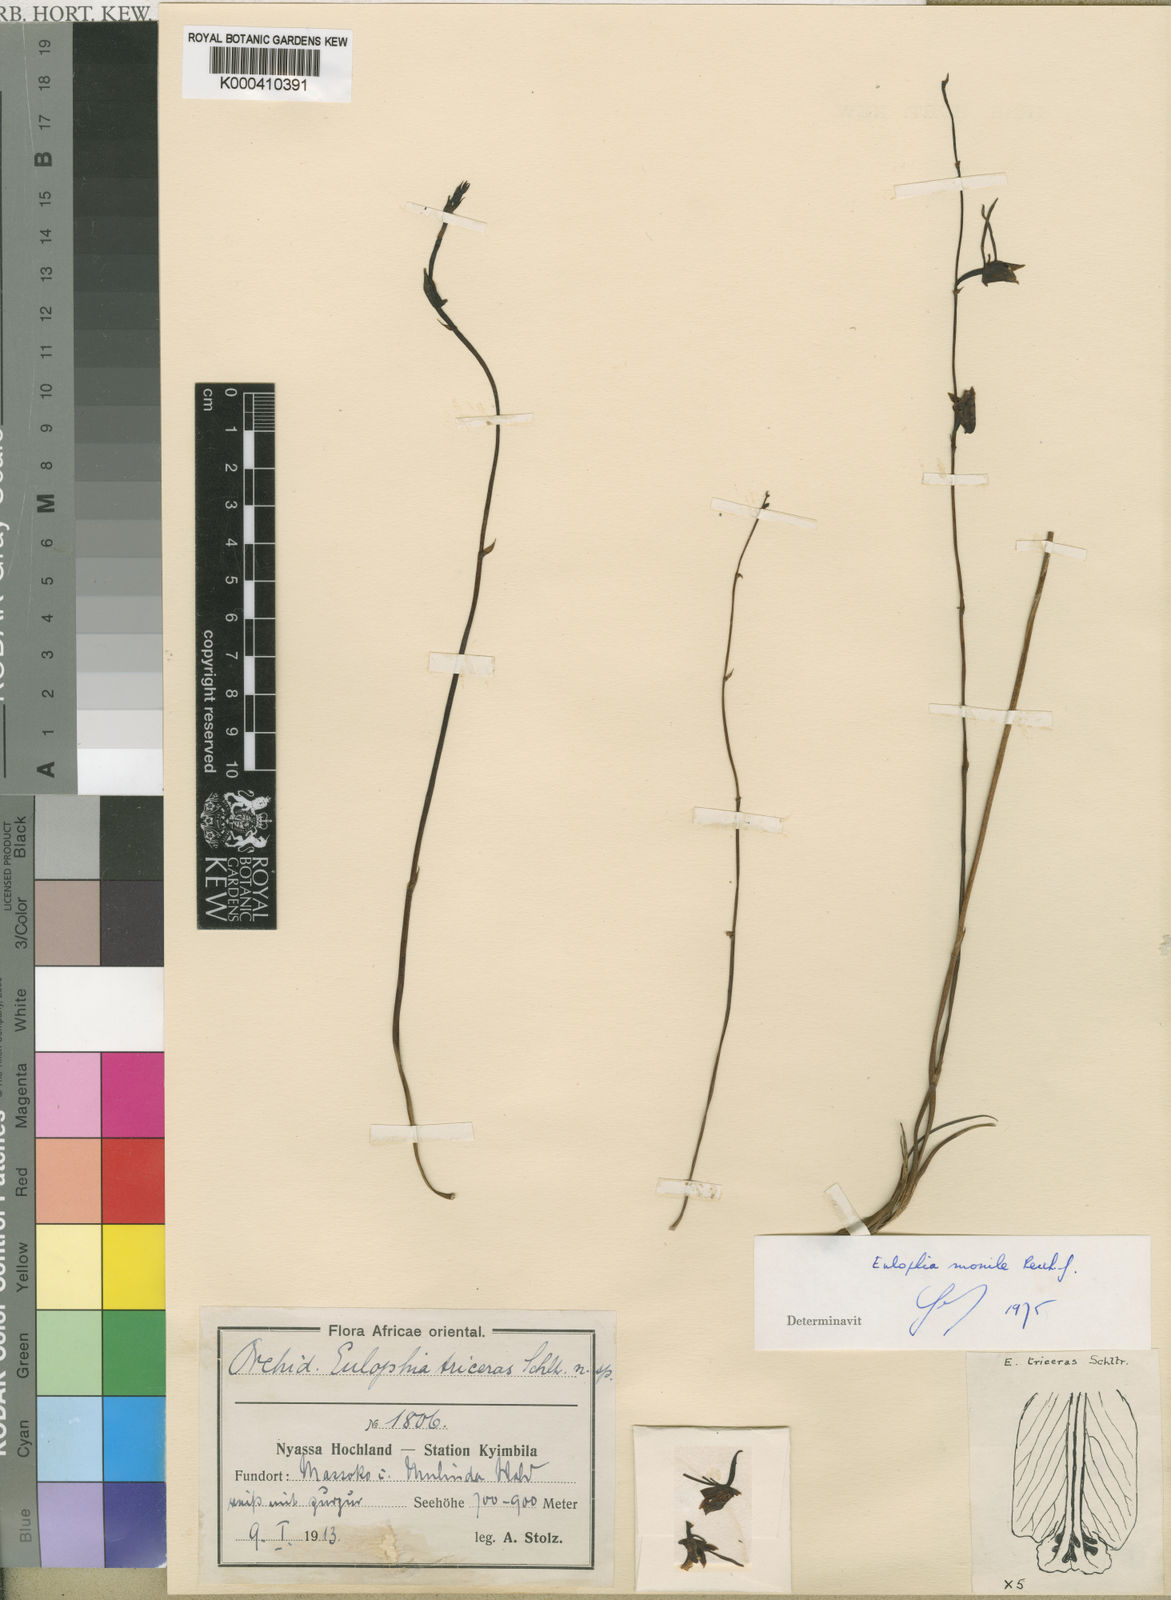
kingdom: Plantae
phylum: Tracheophyta
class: Liliopsida
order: Asparagales
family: Orchidaceae
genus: Eulophia
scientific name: Eulophia longisepala
